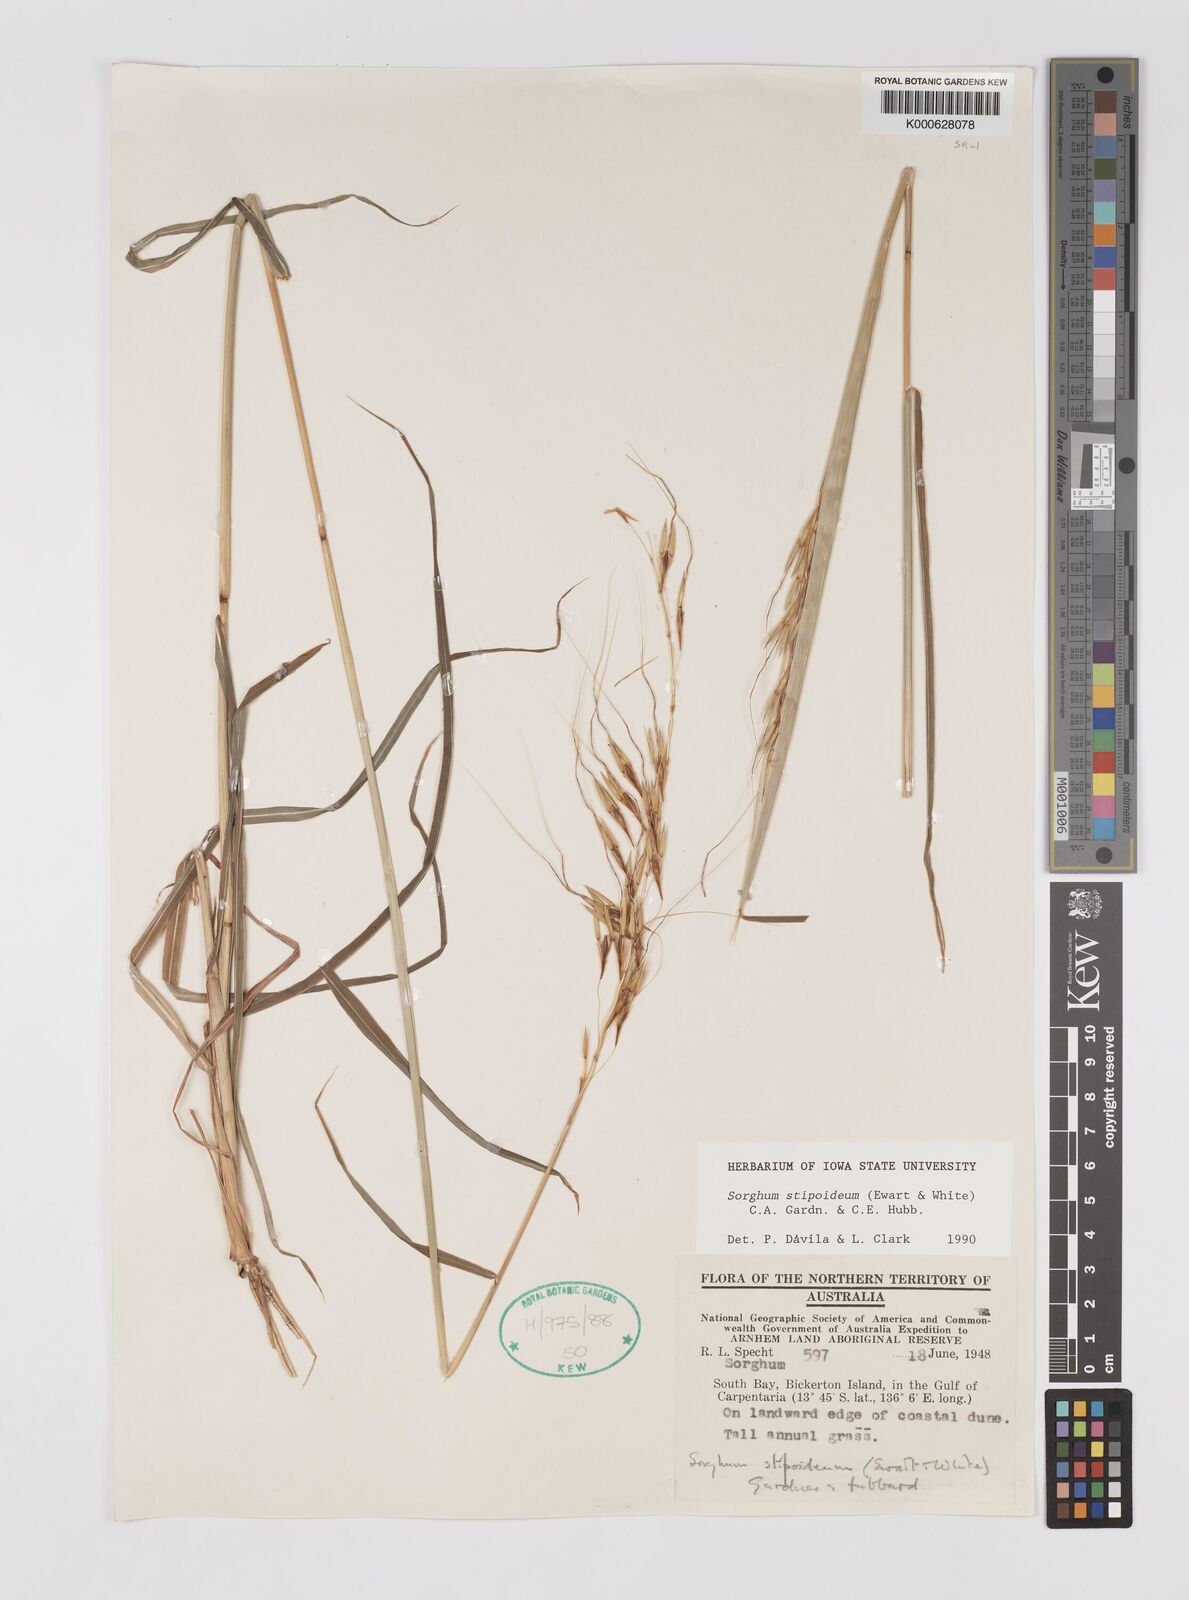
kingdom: Plantae
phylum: Tracheophyta
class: Liliopsida
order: Poales
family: Poaceae
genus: Sarga
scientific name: Sarga stipoidea
